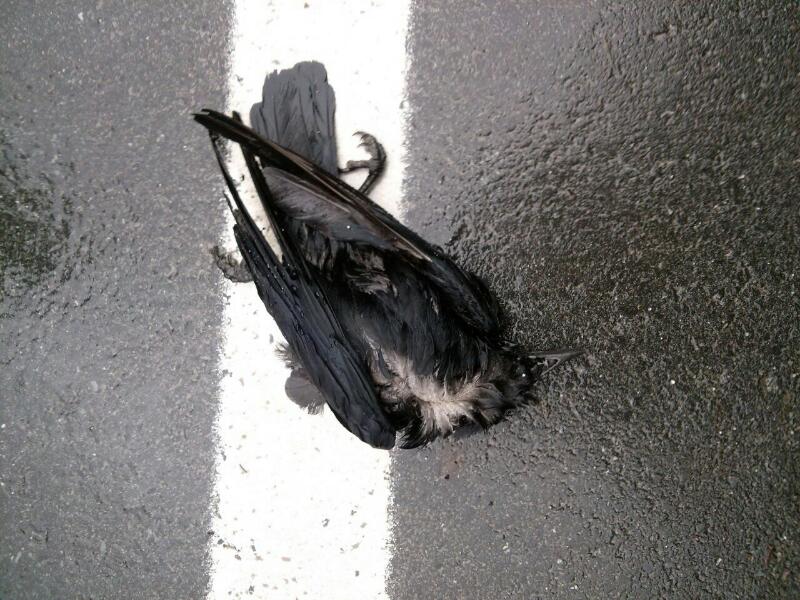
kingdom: Animalia
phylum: Chordata
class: Aves
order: Passeriformes
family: Corvidae
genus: Corvus
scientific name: Corvus
